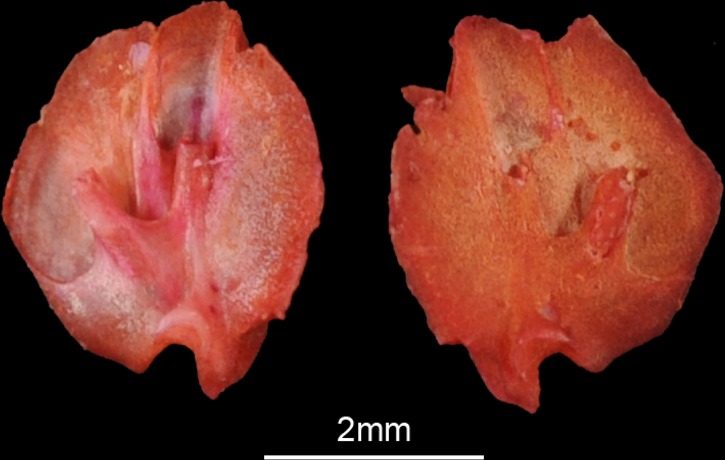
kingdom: Animalia
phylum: Chordata
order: Characiformes
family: Alestidae
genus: Brycinus
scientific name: Brycinus nurse
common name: Nurse tetra
